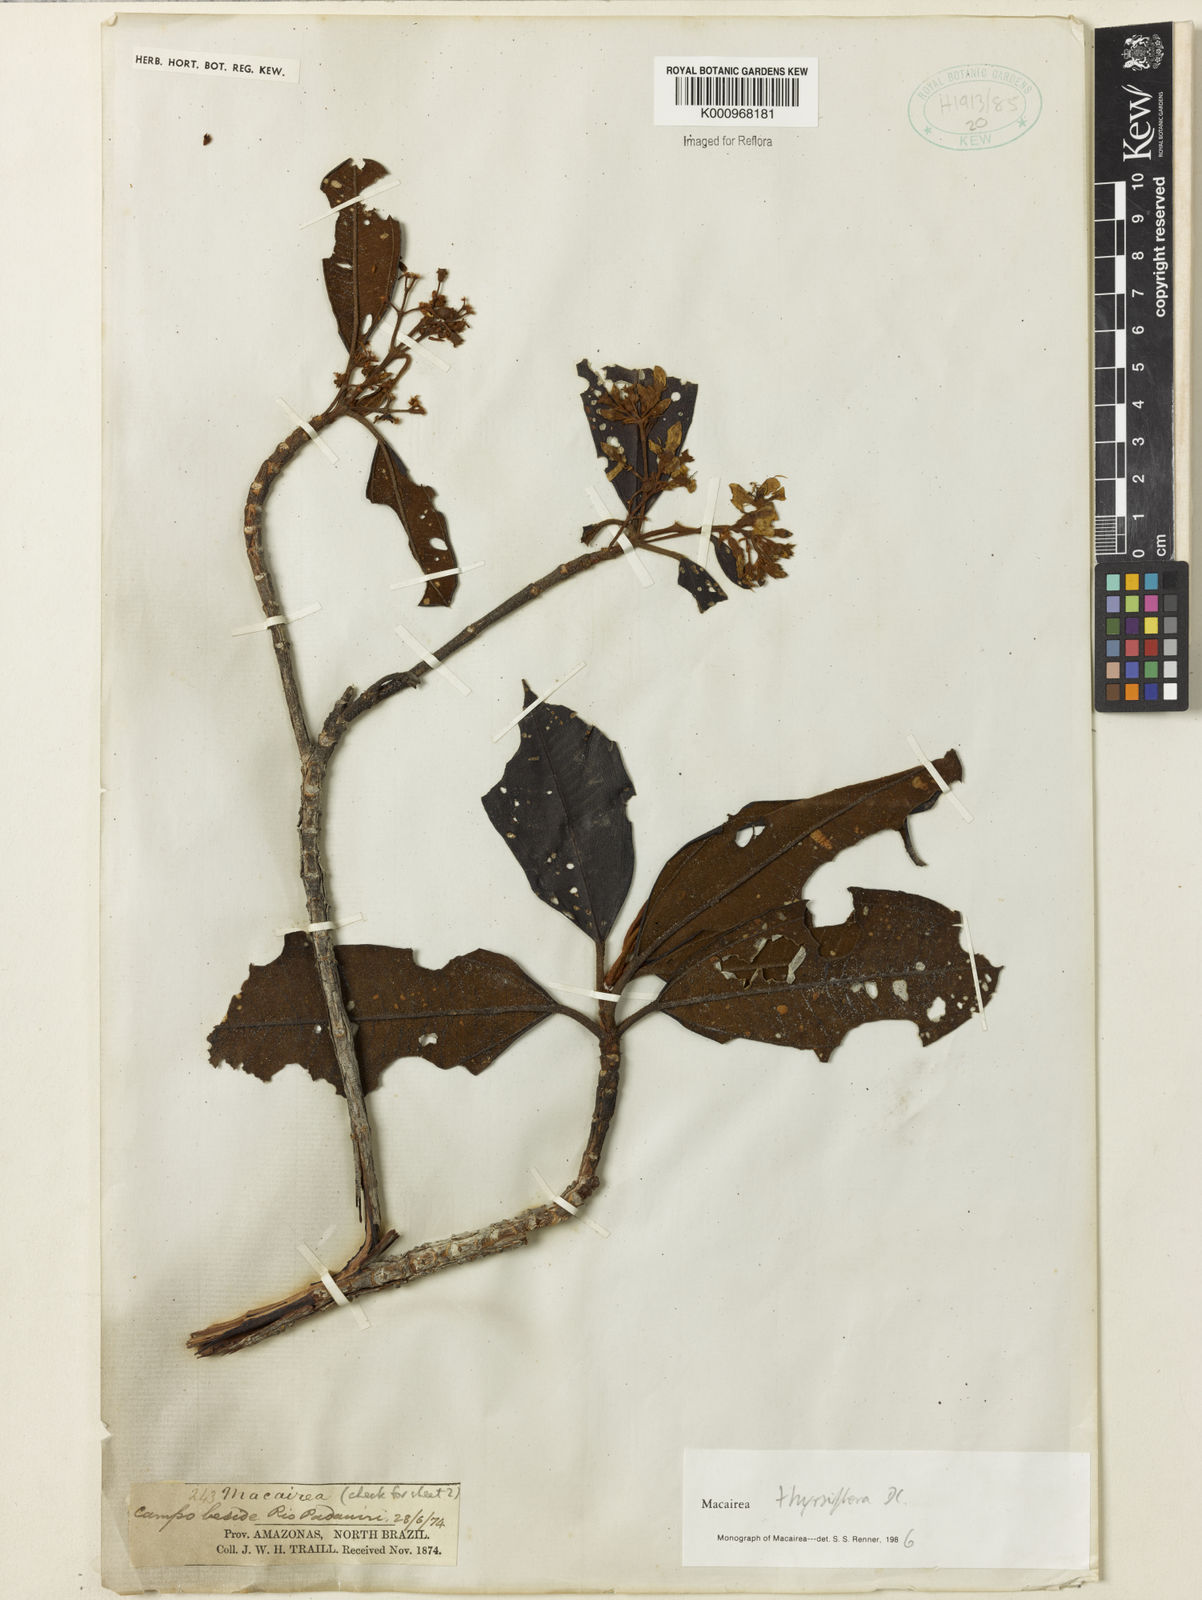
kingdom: Plantae
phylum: Tracheophyta
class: Magnoliopsida
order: Myrtales
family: Melastomataceae
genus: Macairea
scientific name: Macairea thyrsiflora
